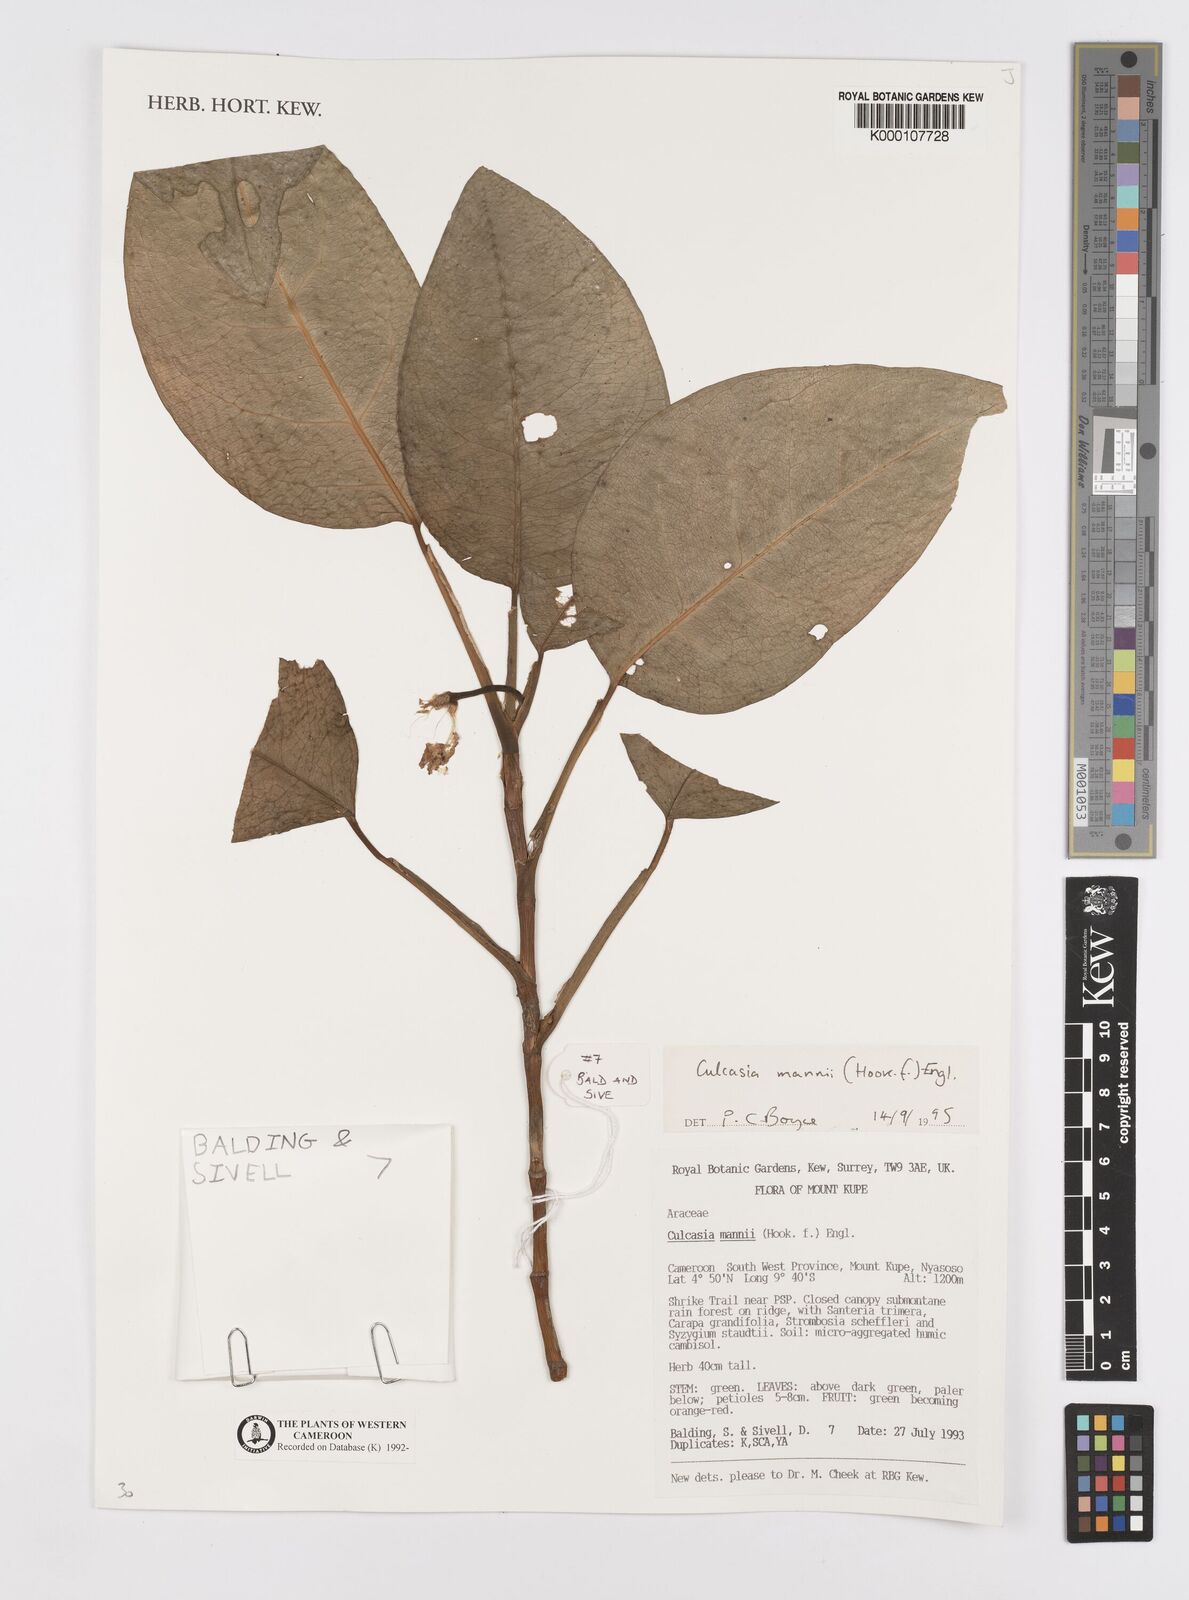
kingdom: Plantae
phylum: Tracheophyta
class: Liliopsida
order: Alismatales
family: Araceae
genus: Culcasia
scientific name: Culcasia mannii
